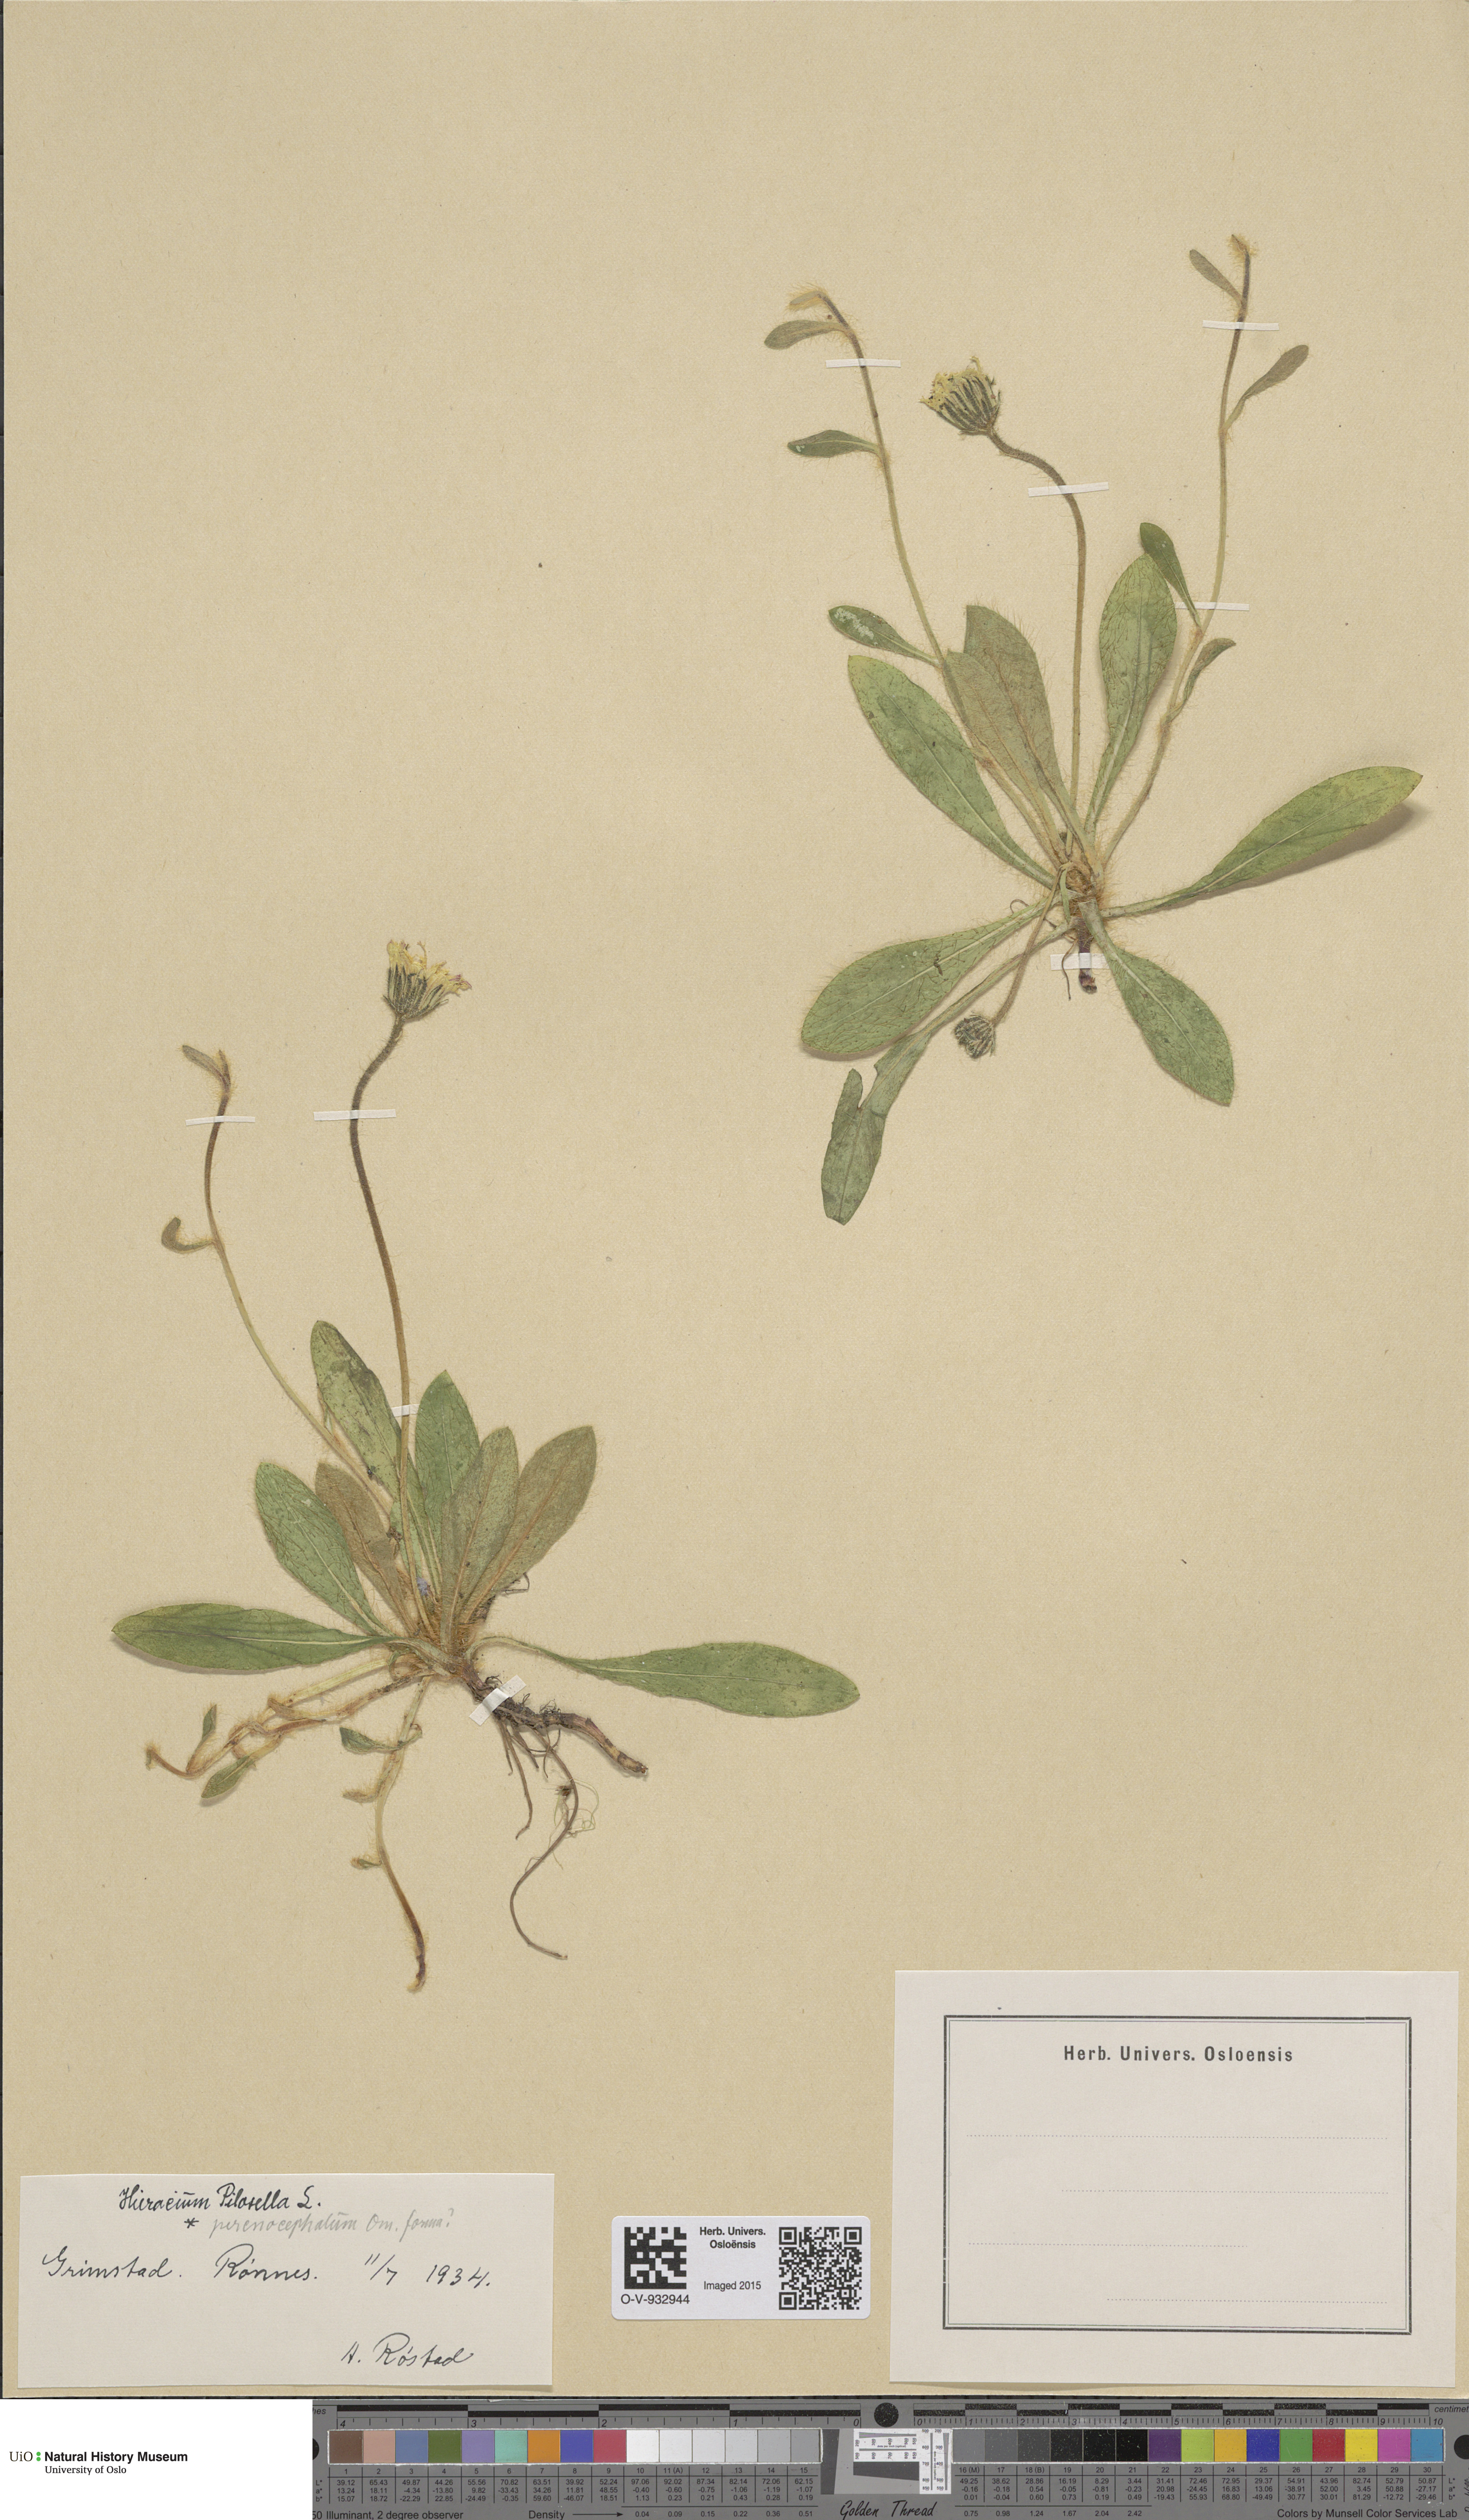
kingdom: Plantae
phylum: Tracheophyta
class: Magnoliopsida
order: Asterales
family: Asteraceae
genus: Pilosella
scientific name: Pilosella officinarum
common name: Mouse-ear hawkweed
